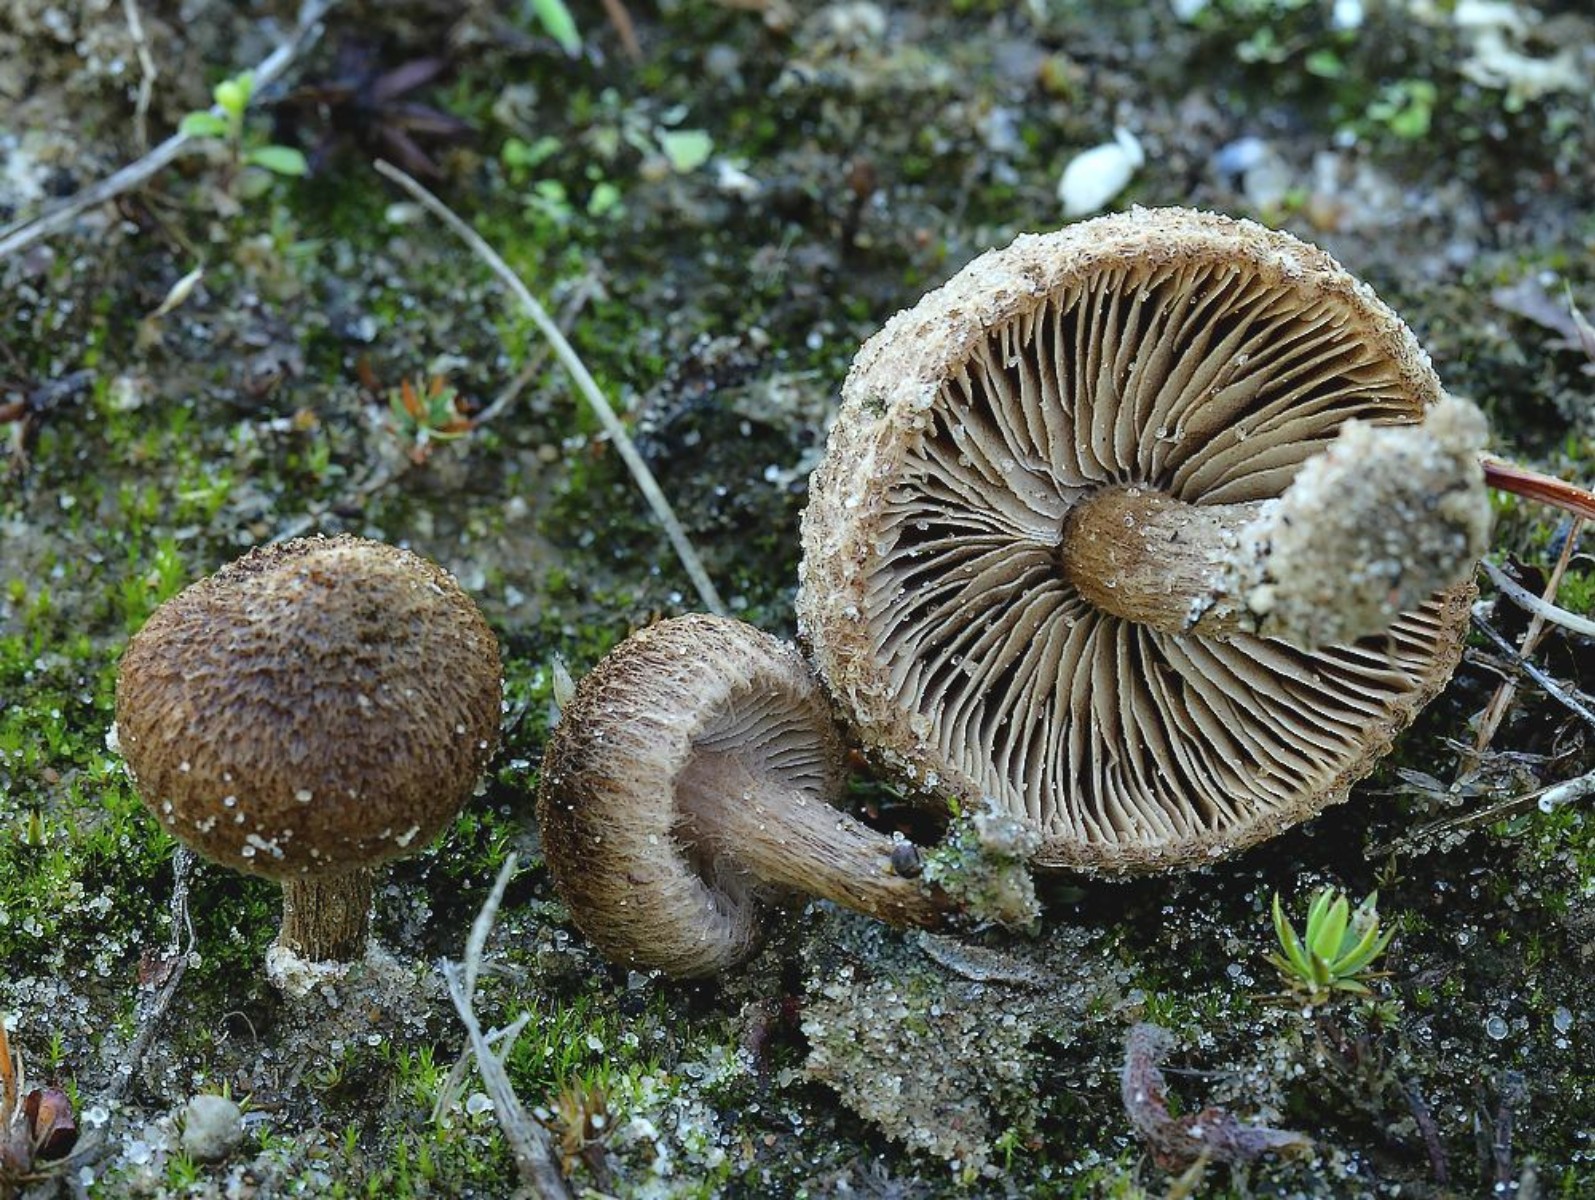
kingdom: Fungi
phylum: Basidiomycota
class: Agaricomycetes
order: Agaricales
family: Inocybaceae
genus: Inocybe
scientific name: Inocybe lacera
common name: laset trævlhat
